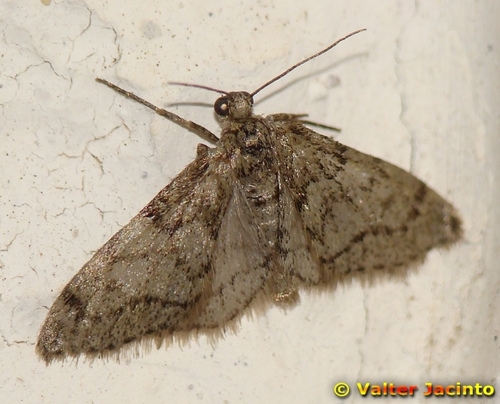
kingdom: Animalia
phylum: Arthropoda
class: Insecta
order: Lepidoptera
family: Geometridae
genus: Tephronia
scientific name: Tephronia sepiaria
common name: Dusky carpet
